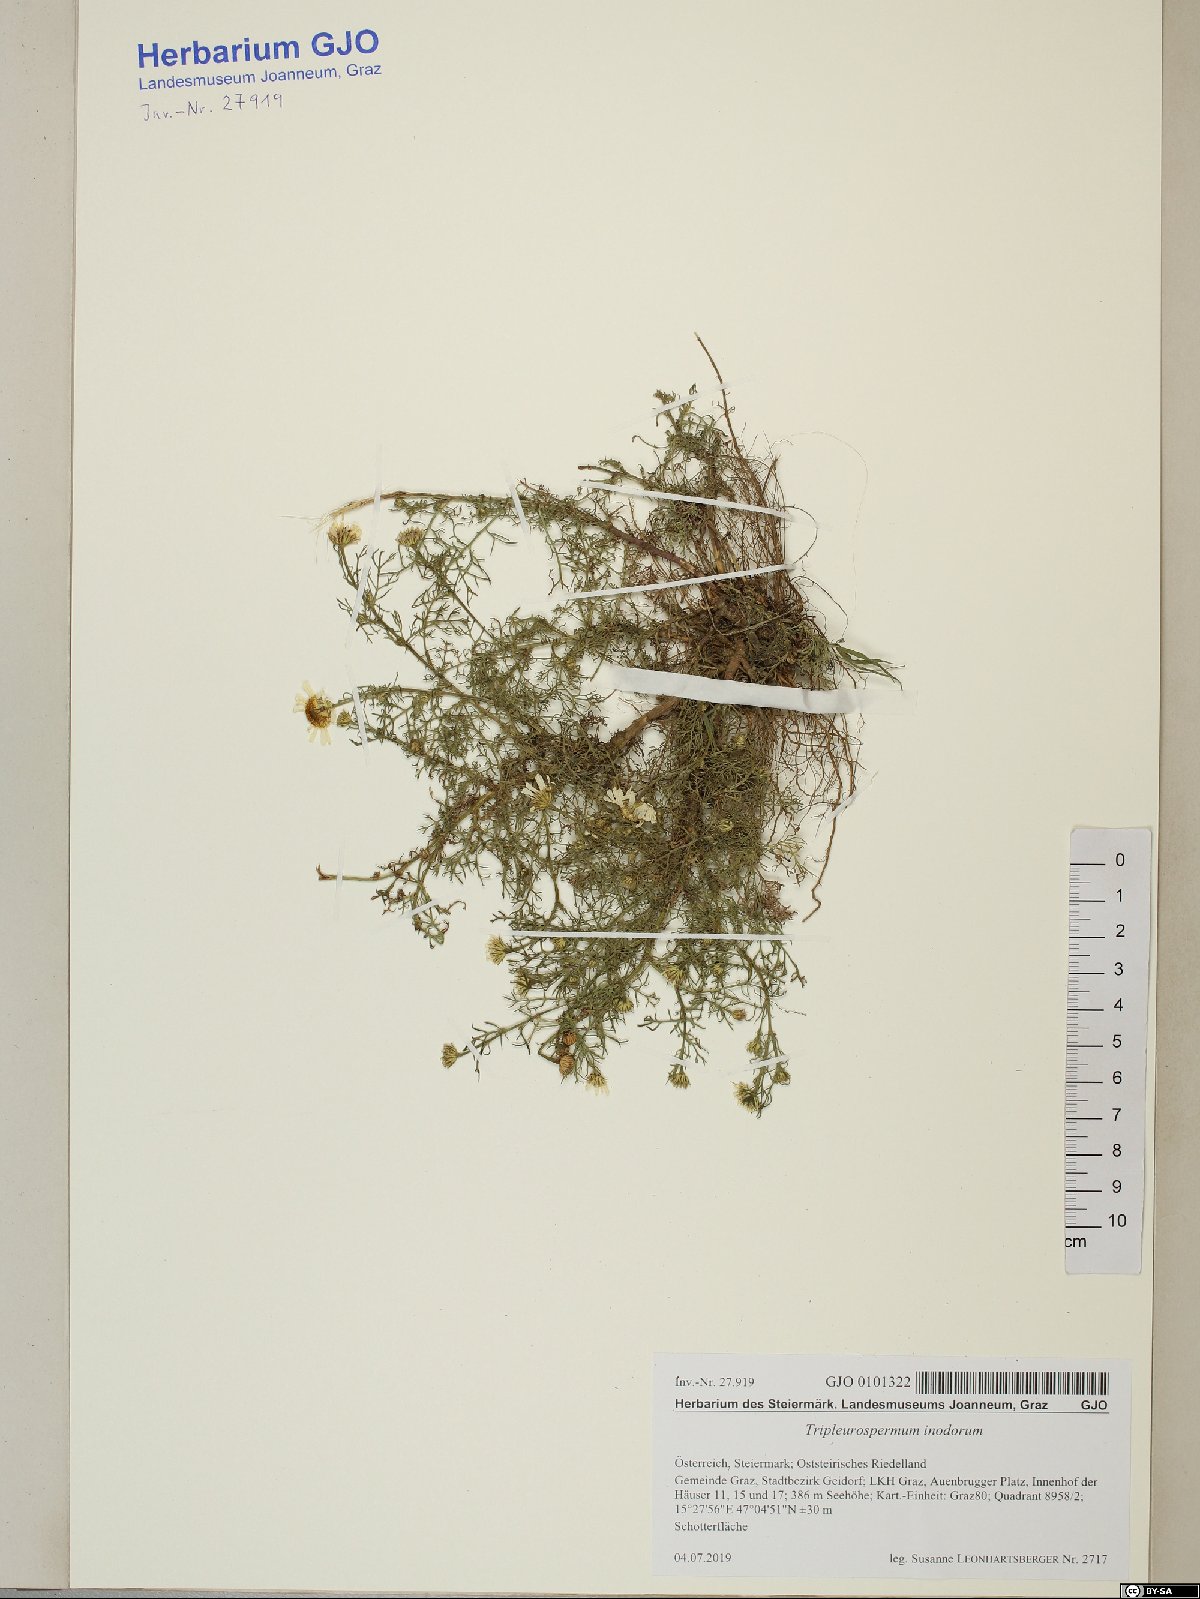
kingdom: Plantae
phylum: Tracheophyta
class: Magnoliopsida
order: Asterales
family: Asteraceae
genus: Tripleurospermum
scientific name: Tripleurospermum inodorum
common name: Scentless mayweed
